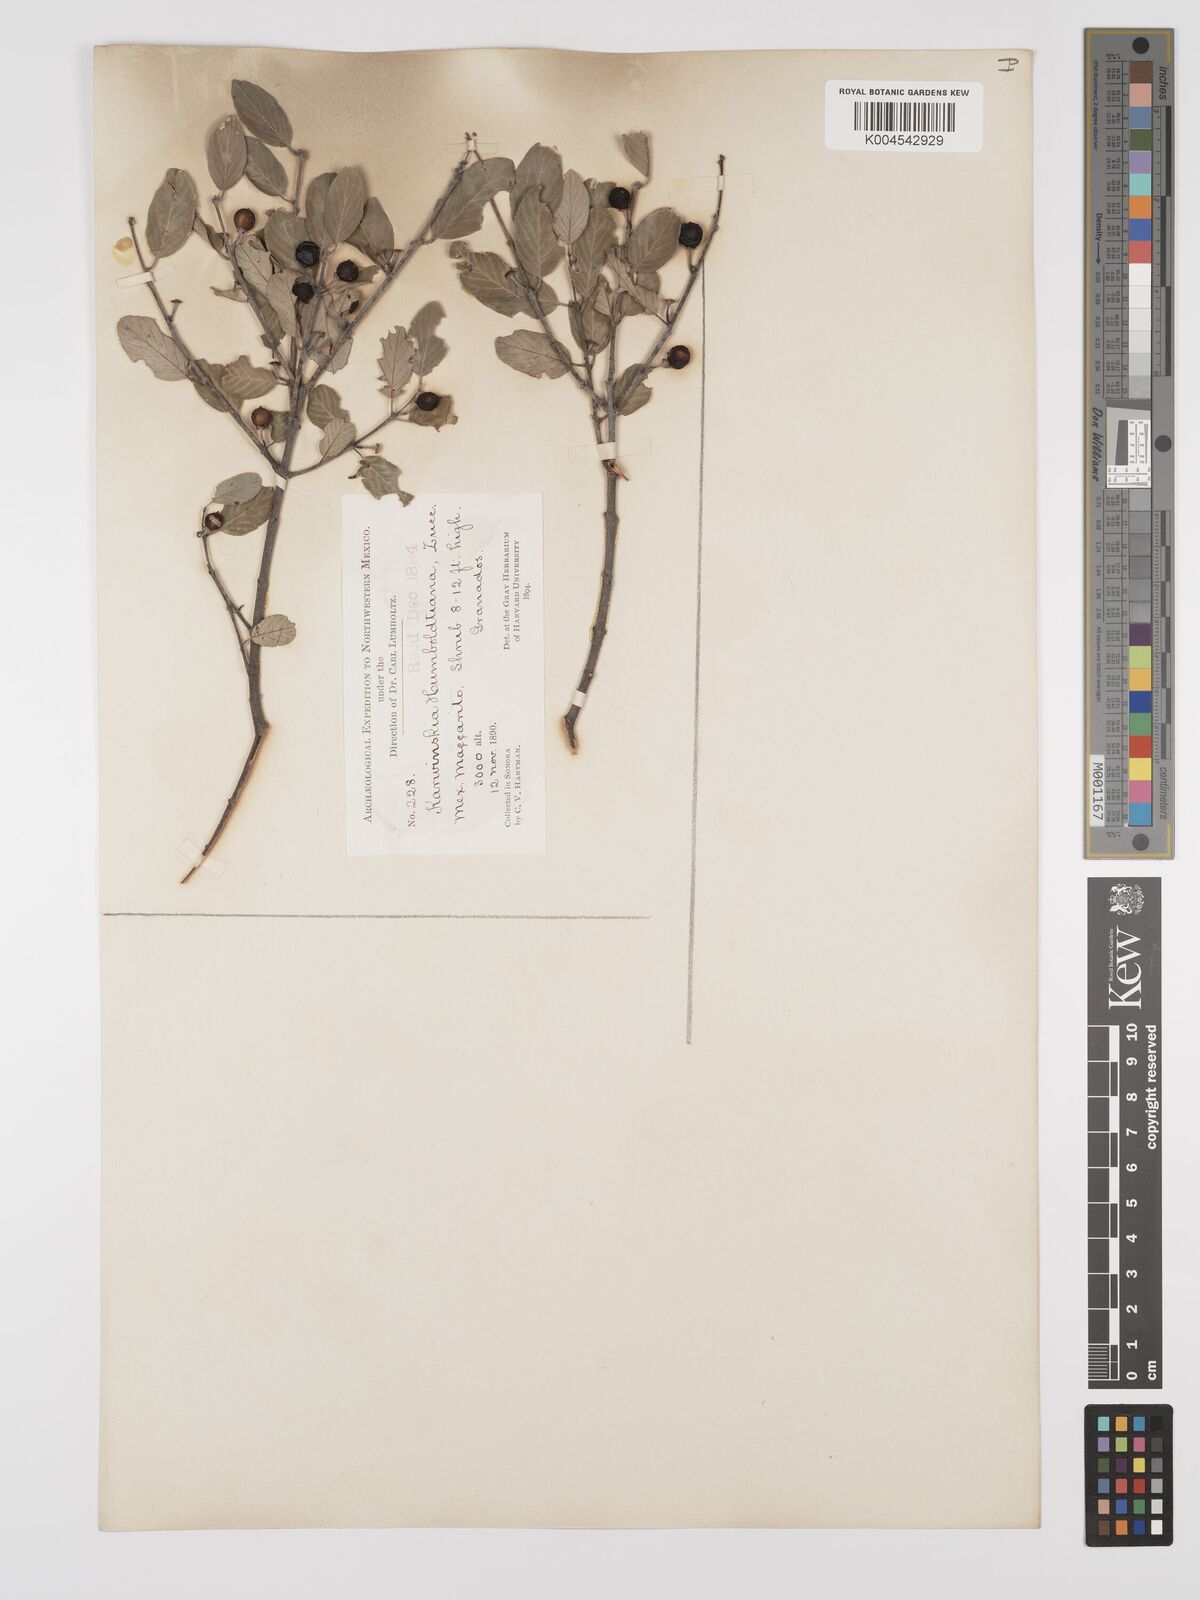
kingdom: Plantae
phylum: Tracheophyta
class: Magnoliopsida
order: Rosales
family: Rhamnaceae
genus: Karwinskia
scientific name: Karwinskia parvifolia
